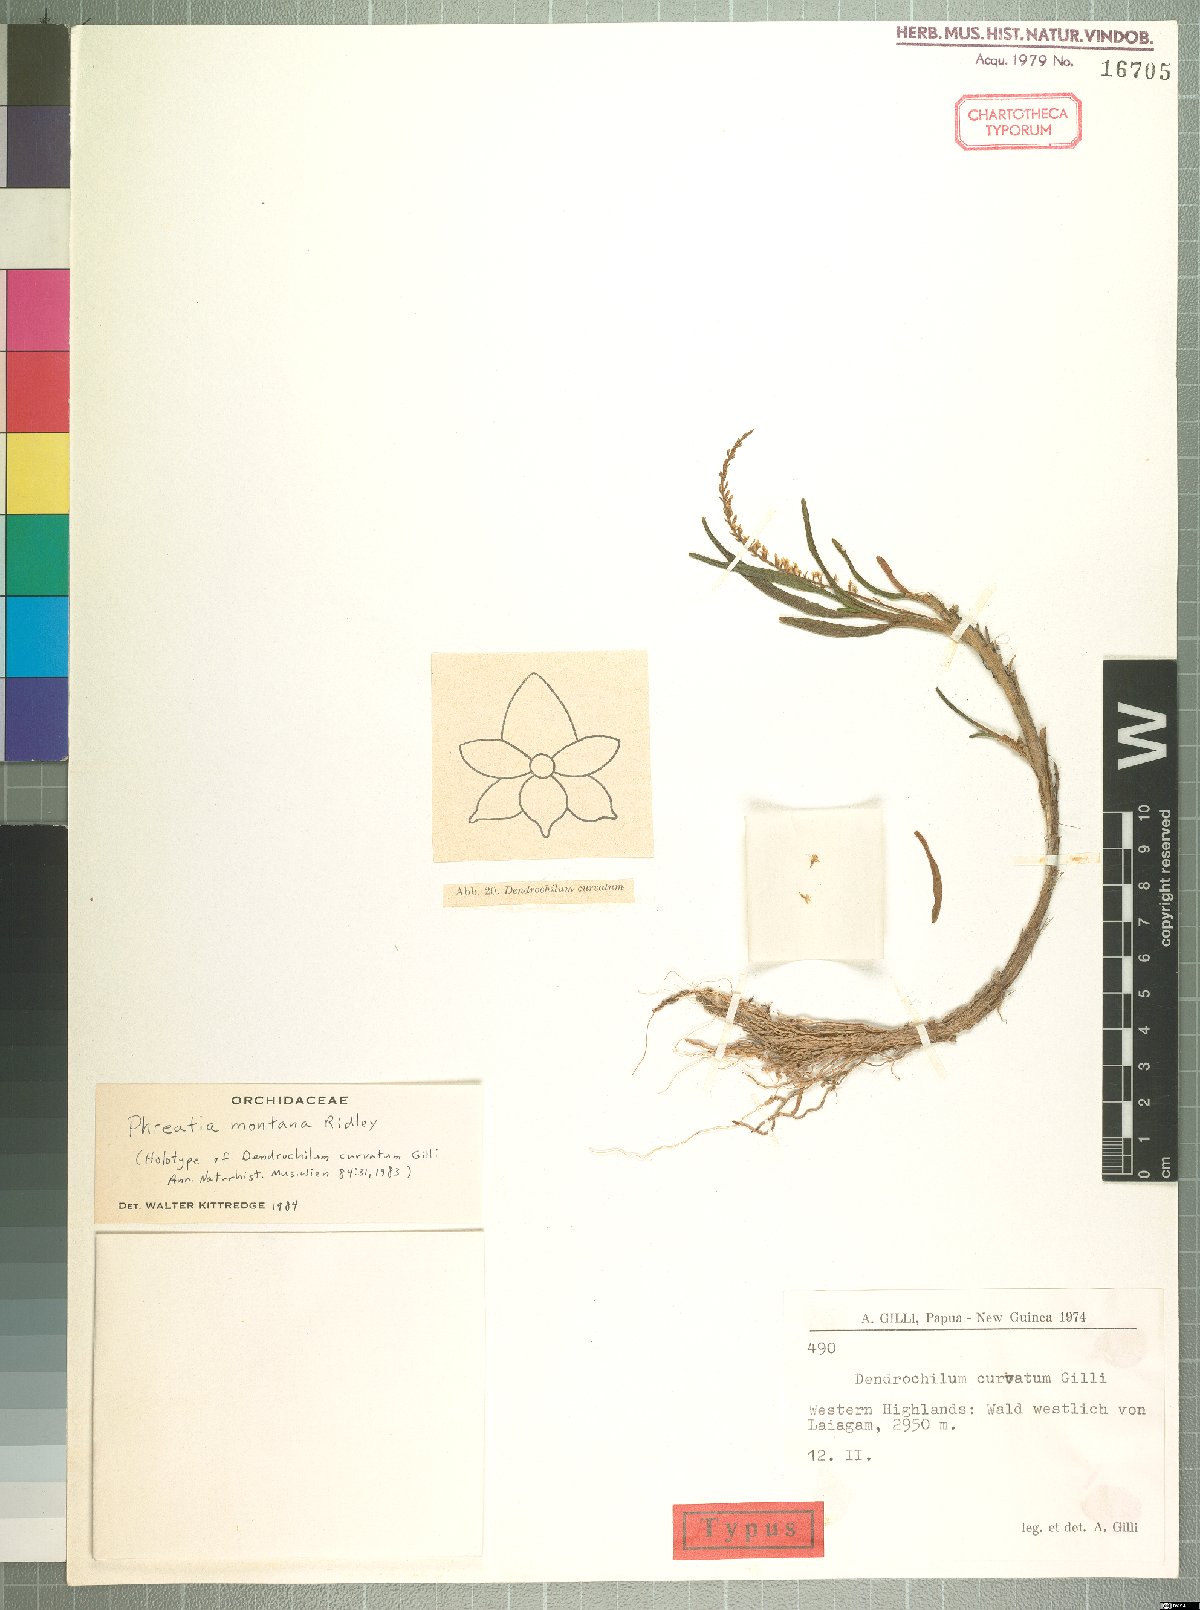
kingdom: Plantae
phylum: Tracheophyta
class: Liliopsida
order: Asparagales
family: Orchidaceae
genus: Phreatia
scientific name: Phreatia montana
